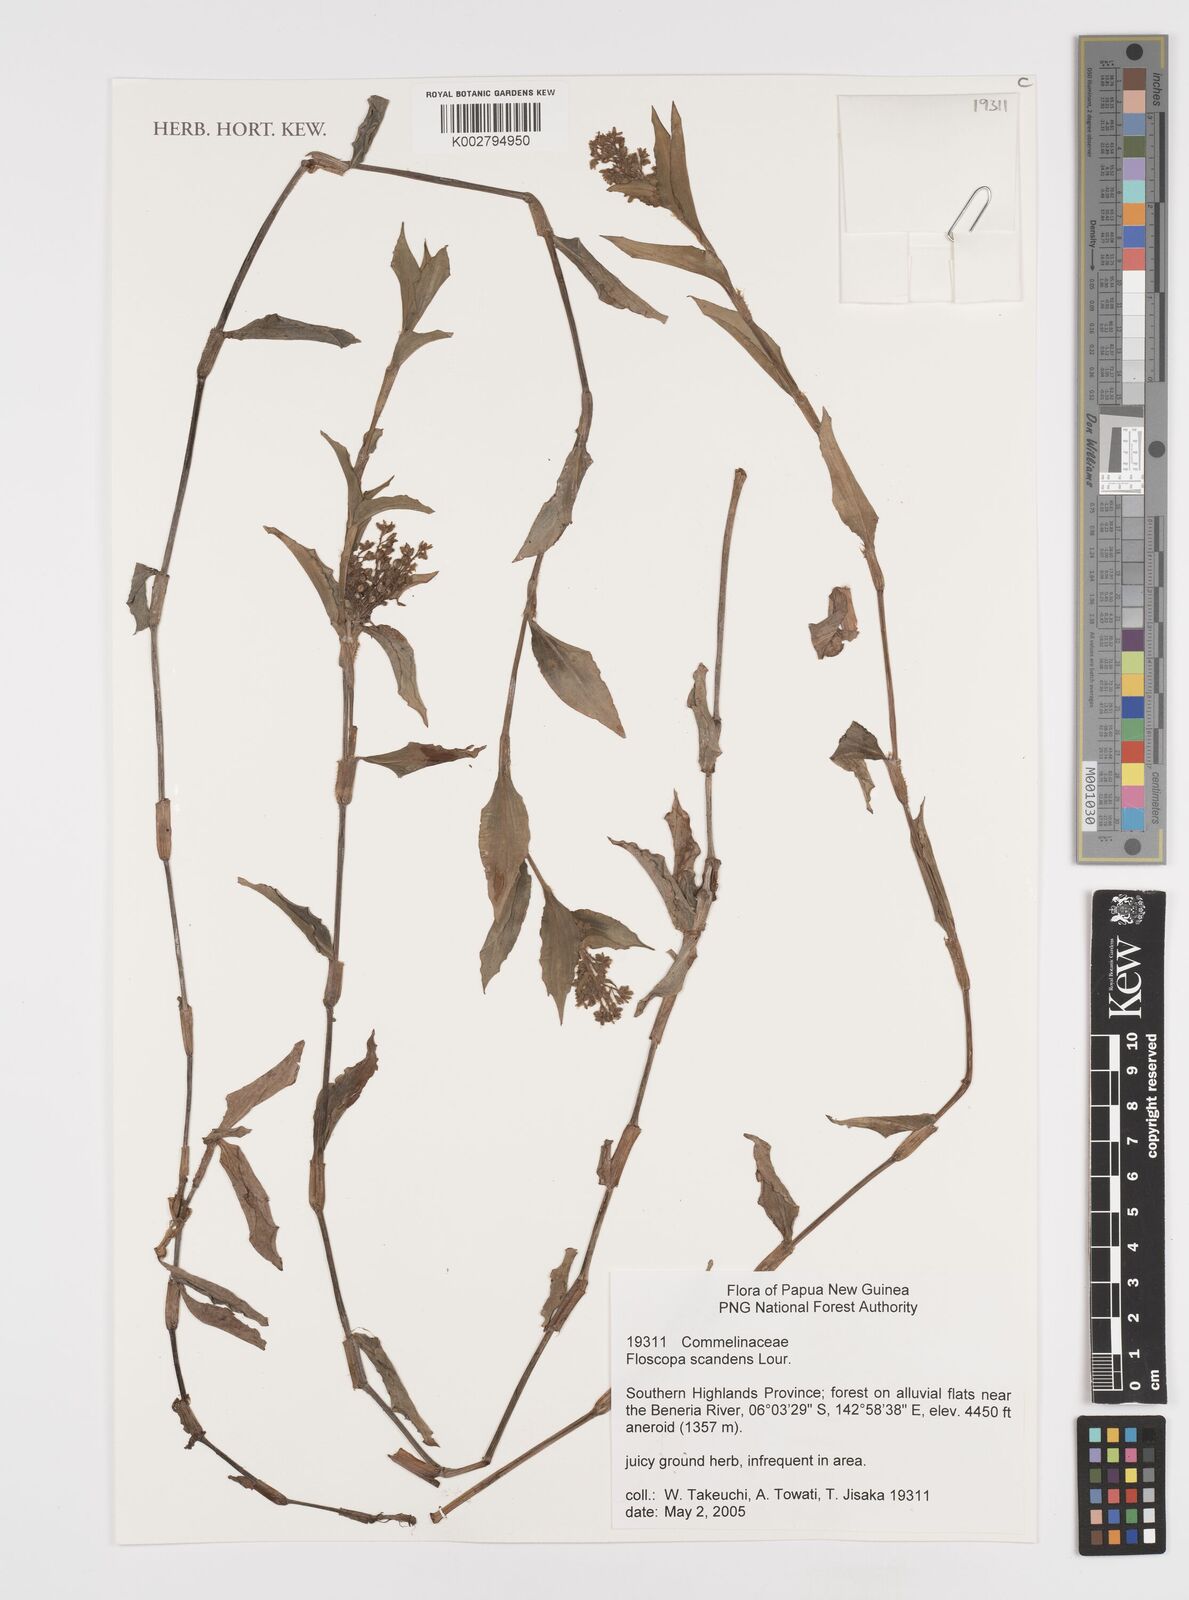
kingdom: Plantae
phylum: Tracheophyta
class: Liliopsida
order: Commelinales
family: Commelinaceae
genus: Floscopa
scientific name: Floscopa scandens
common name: Climbing flower cup
